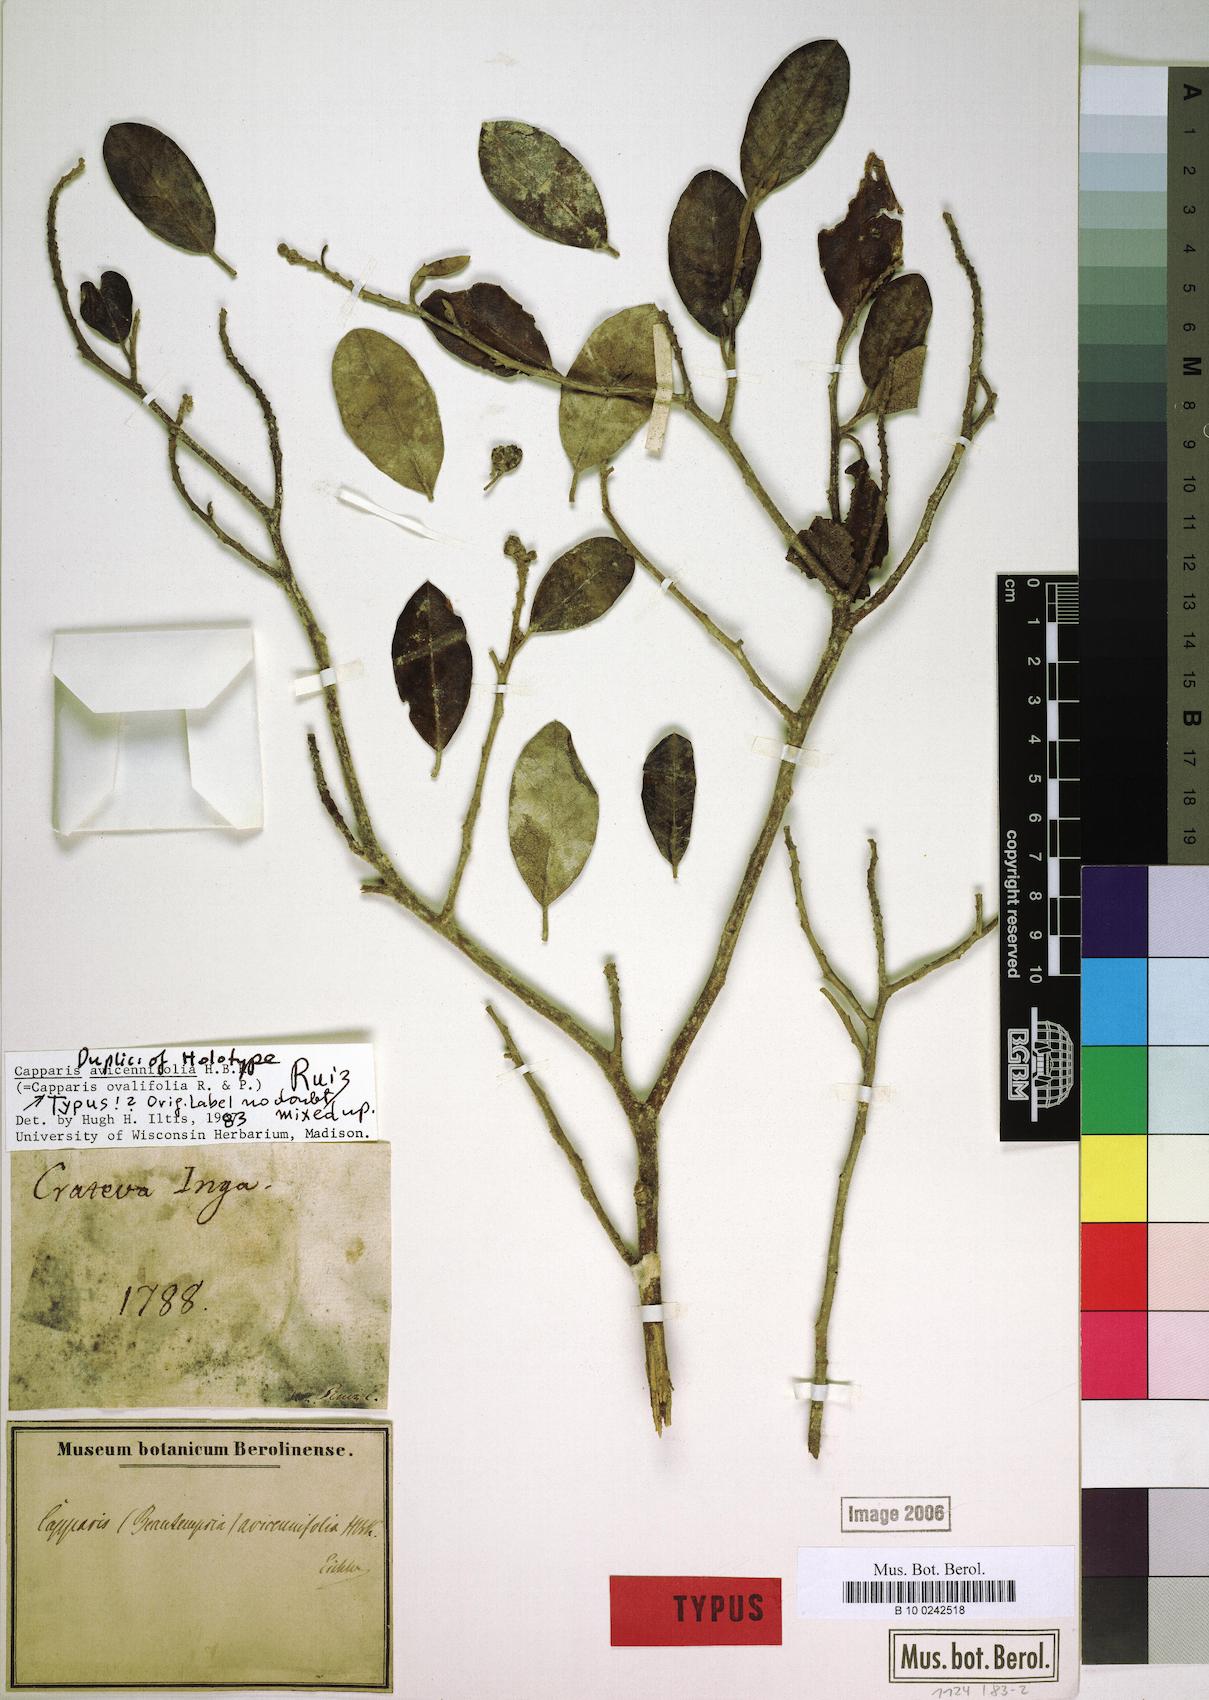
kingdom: Plantae
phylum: Tracheophyta
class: Magnoliopsida
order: Brassicales
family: Capparaceae
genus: Beautempsia
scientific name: Beautempsia avicenniifolia
